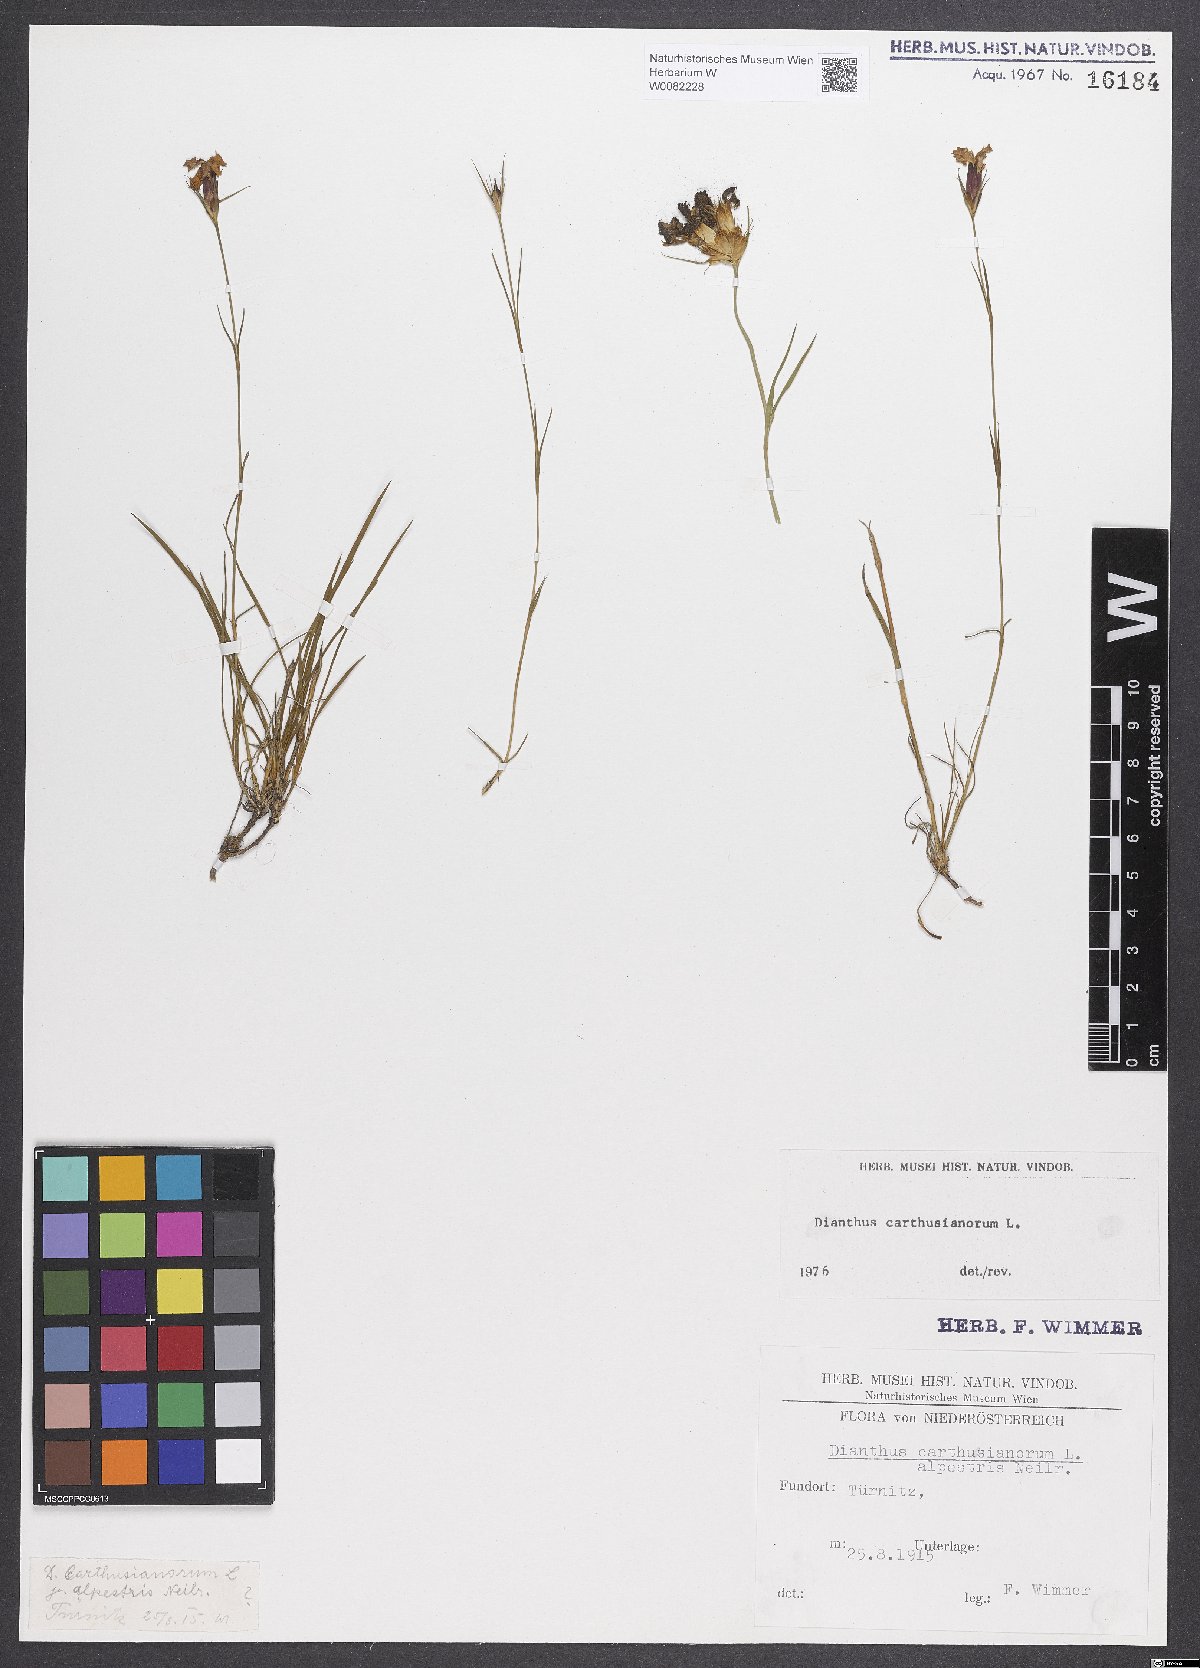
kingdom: Plantae
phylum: Tracheophyta
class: Magnoliopsida
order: Caryophyllales
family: Caryophyllaceae
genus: Dianthus
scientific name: Dianthus carthusianorum
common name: Carthusian pink
